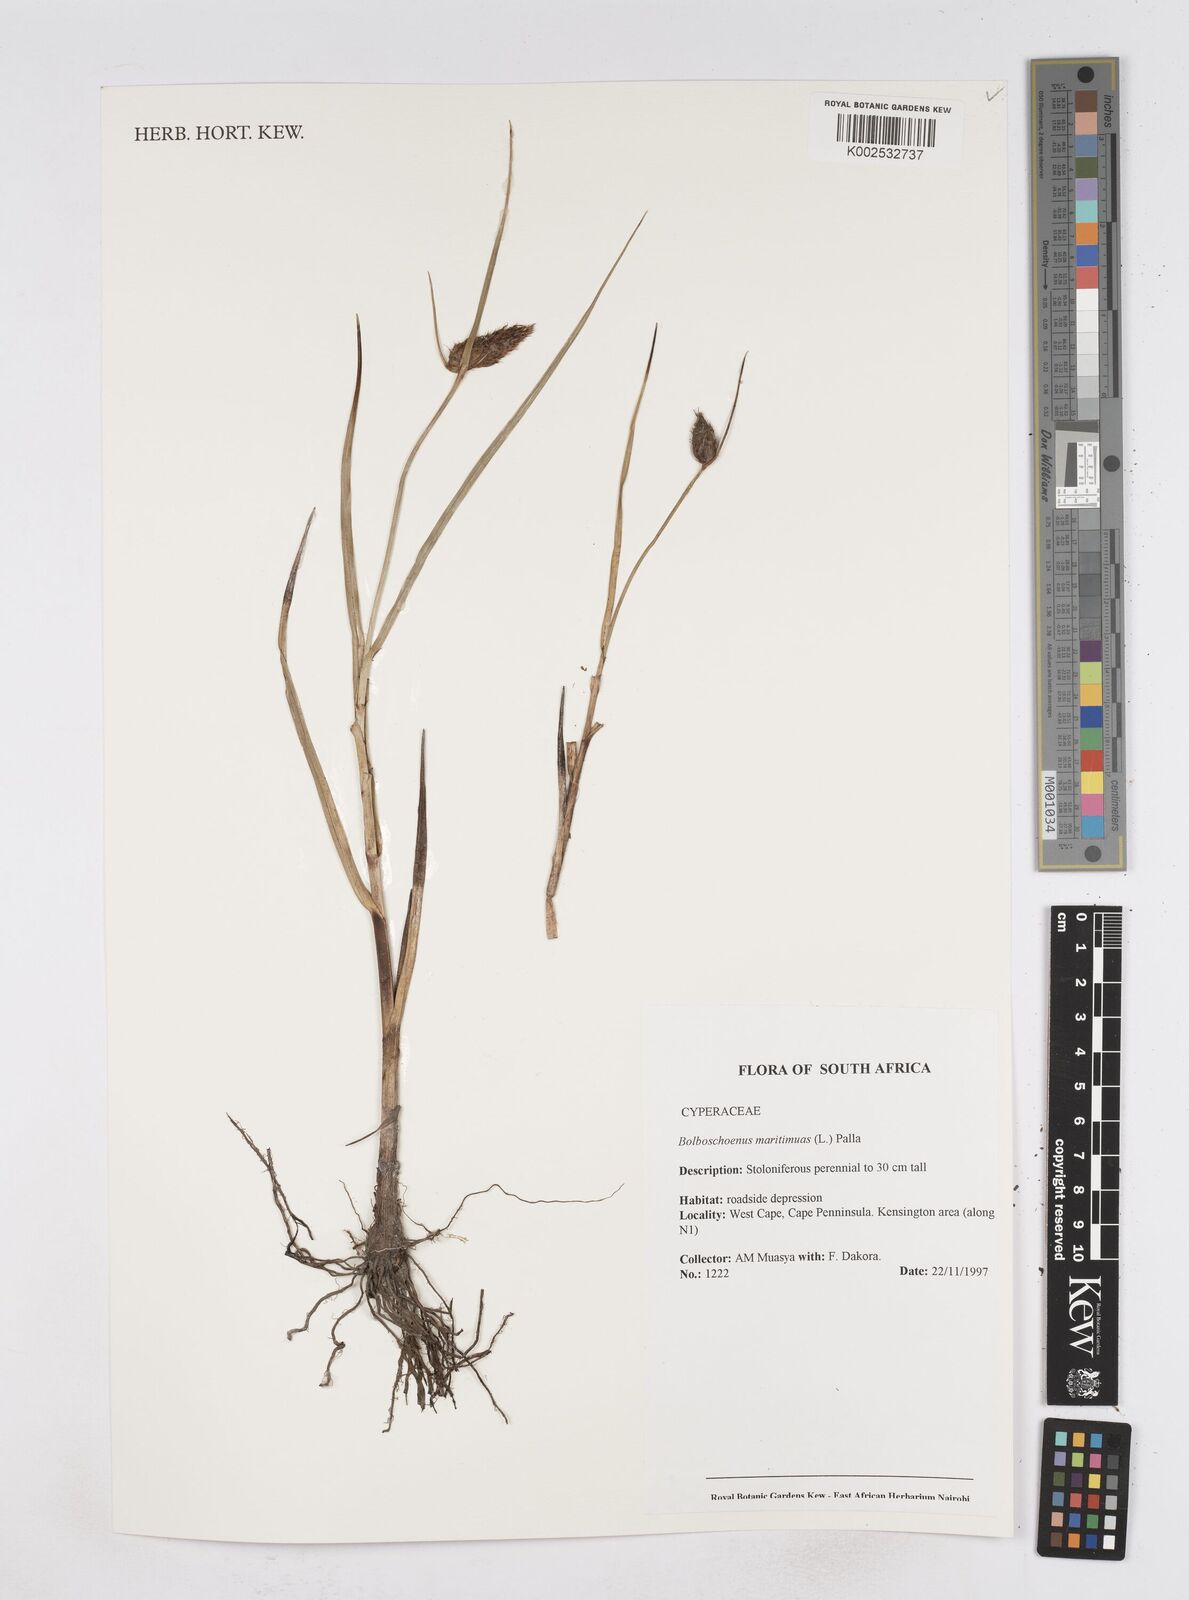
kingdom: Plantae
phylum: Tracheophyta
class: Liliopsida
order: Poales
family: Cyperaceae
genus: Bolboschoenus
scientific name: Bolboschoenus maritimus
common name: Sea club-rush
